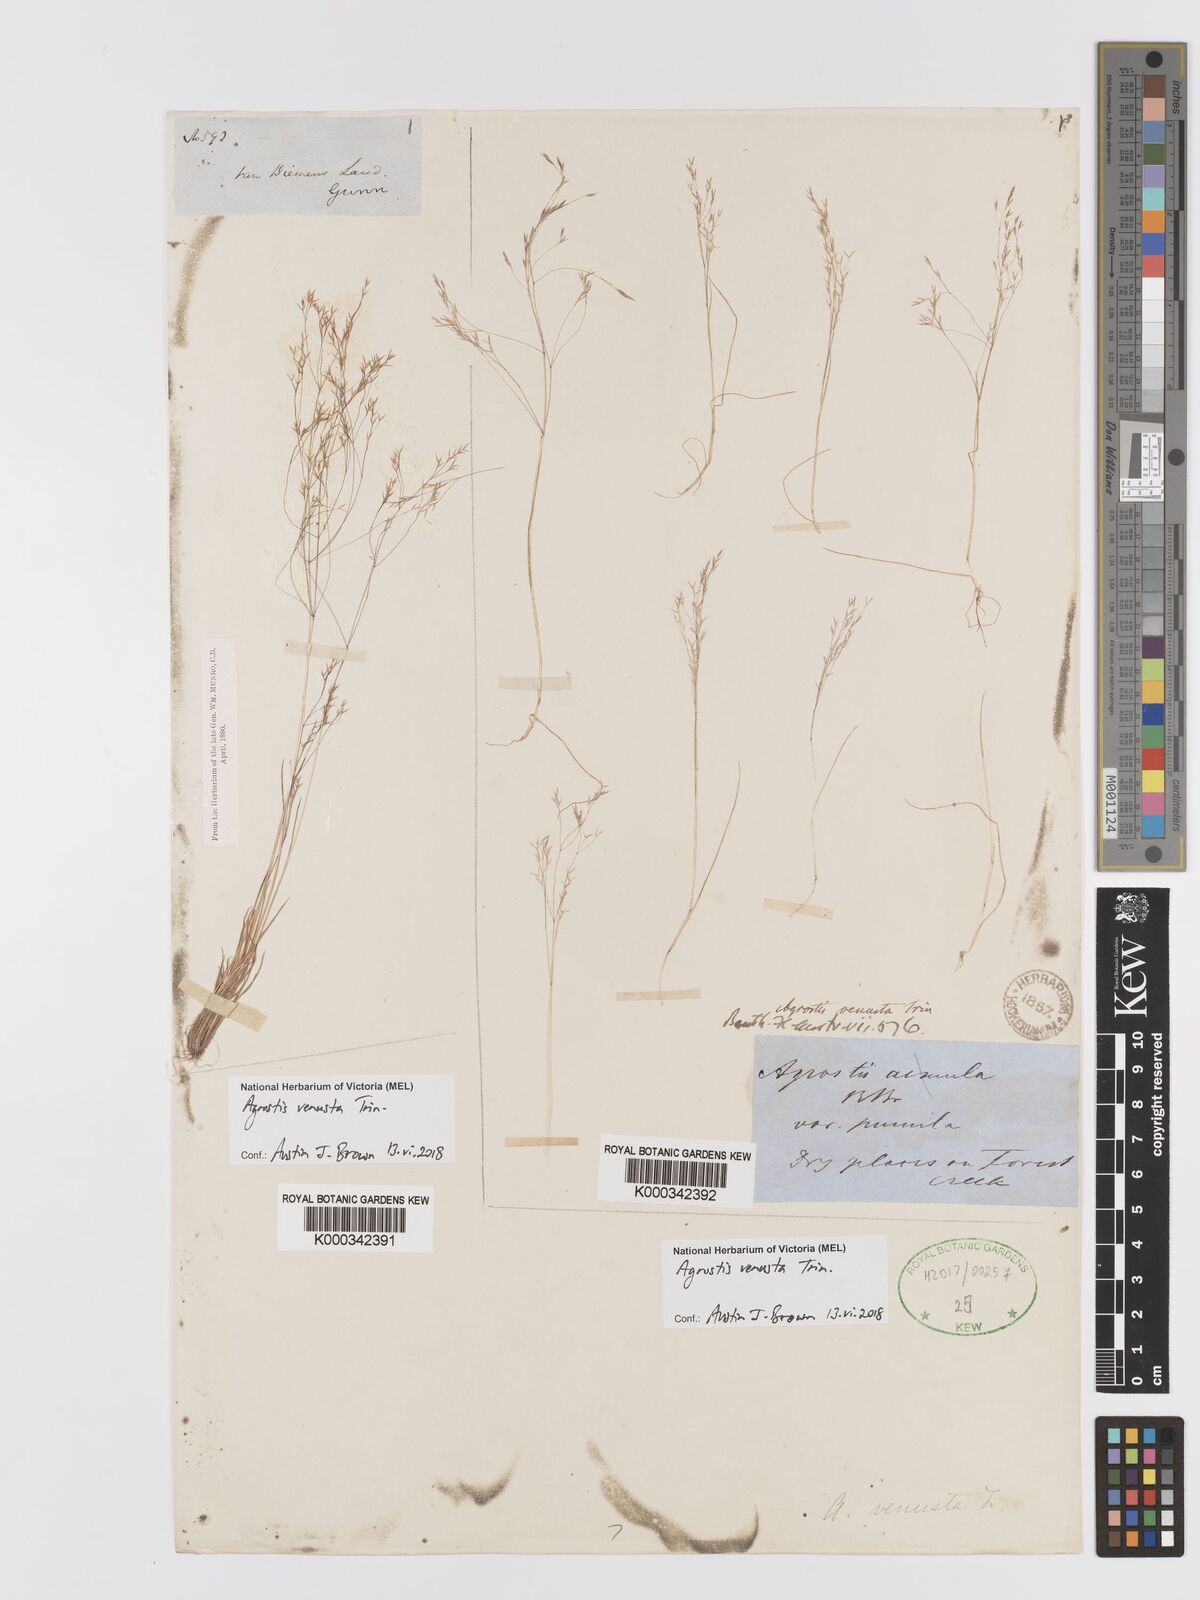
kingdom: Plantae
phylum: Tracheophyta
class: Liliopsida
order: Poales
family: Poaceae
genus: Agrostis
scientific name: Agrostis venusta
